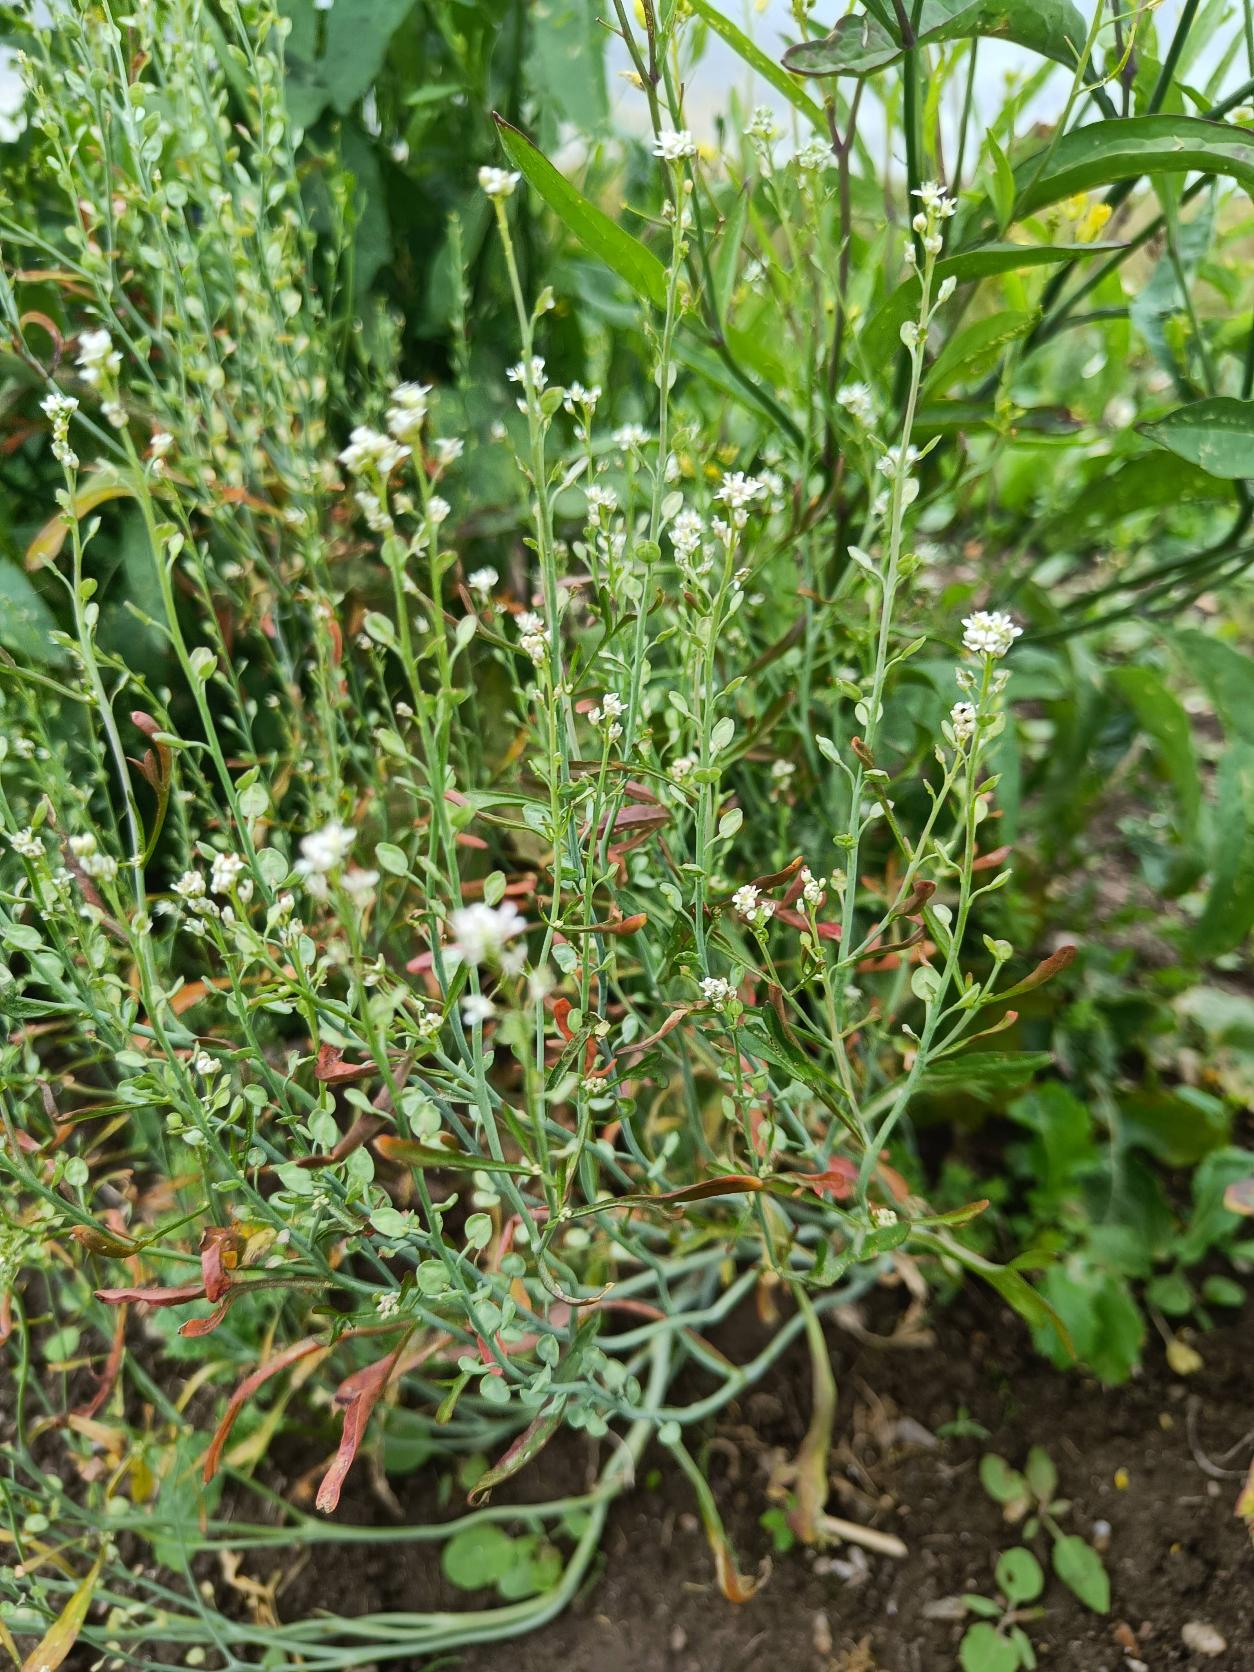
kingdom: Plantae
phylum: Tracheophyta
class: Magnoliopsida
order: Brassicales
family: Brassicaceae
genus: Lepidium
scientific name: Lepidium sativum
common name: Have-karse
